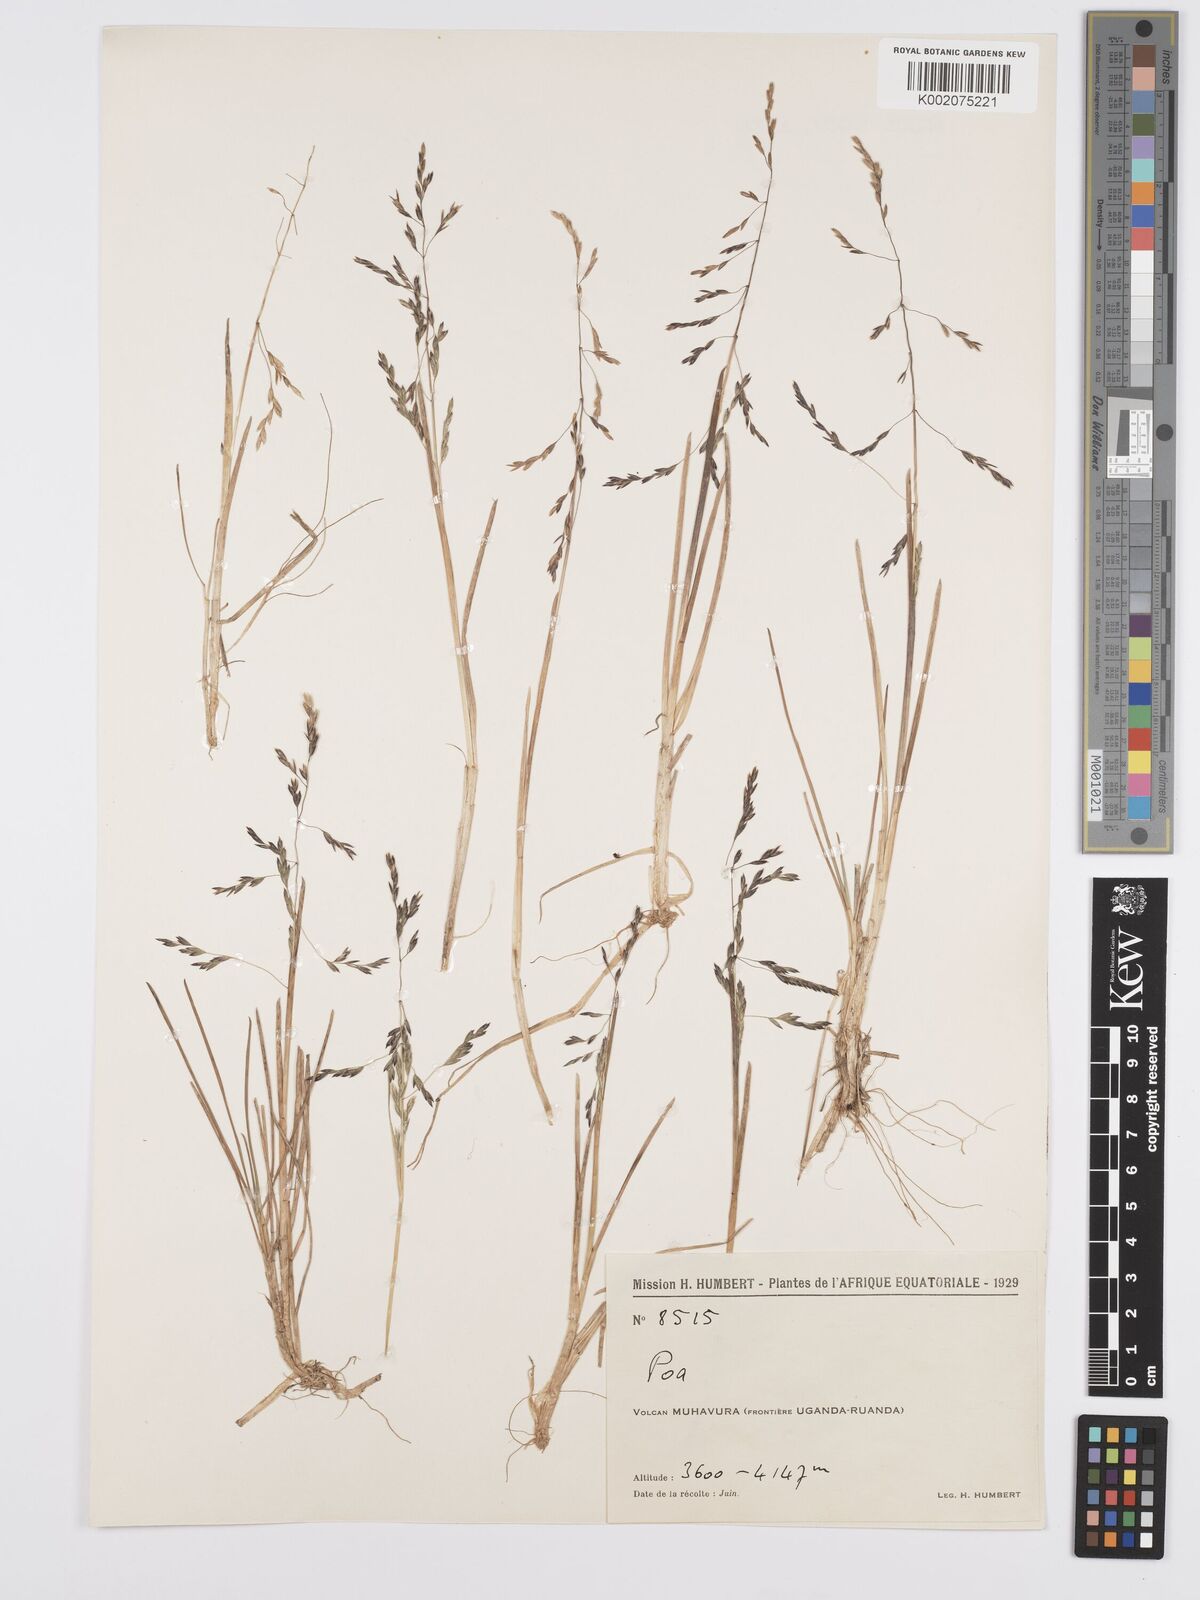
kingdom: Plantae
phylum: Tracheophyta
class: Liliopsida
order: Poales
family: Poaceae
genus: Poa
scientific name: Poa schimperiana
